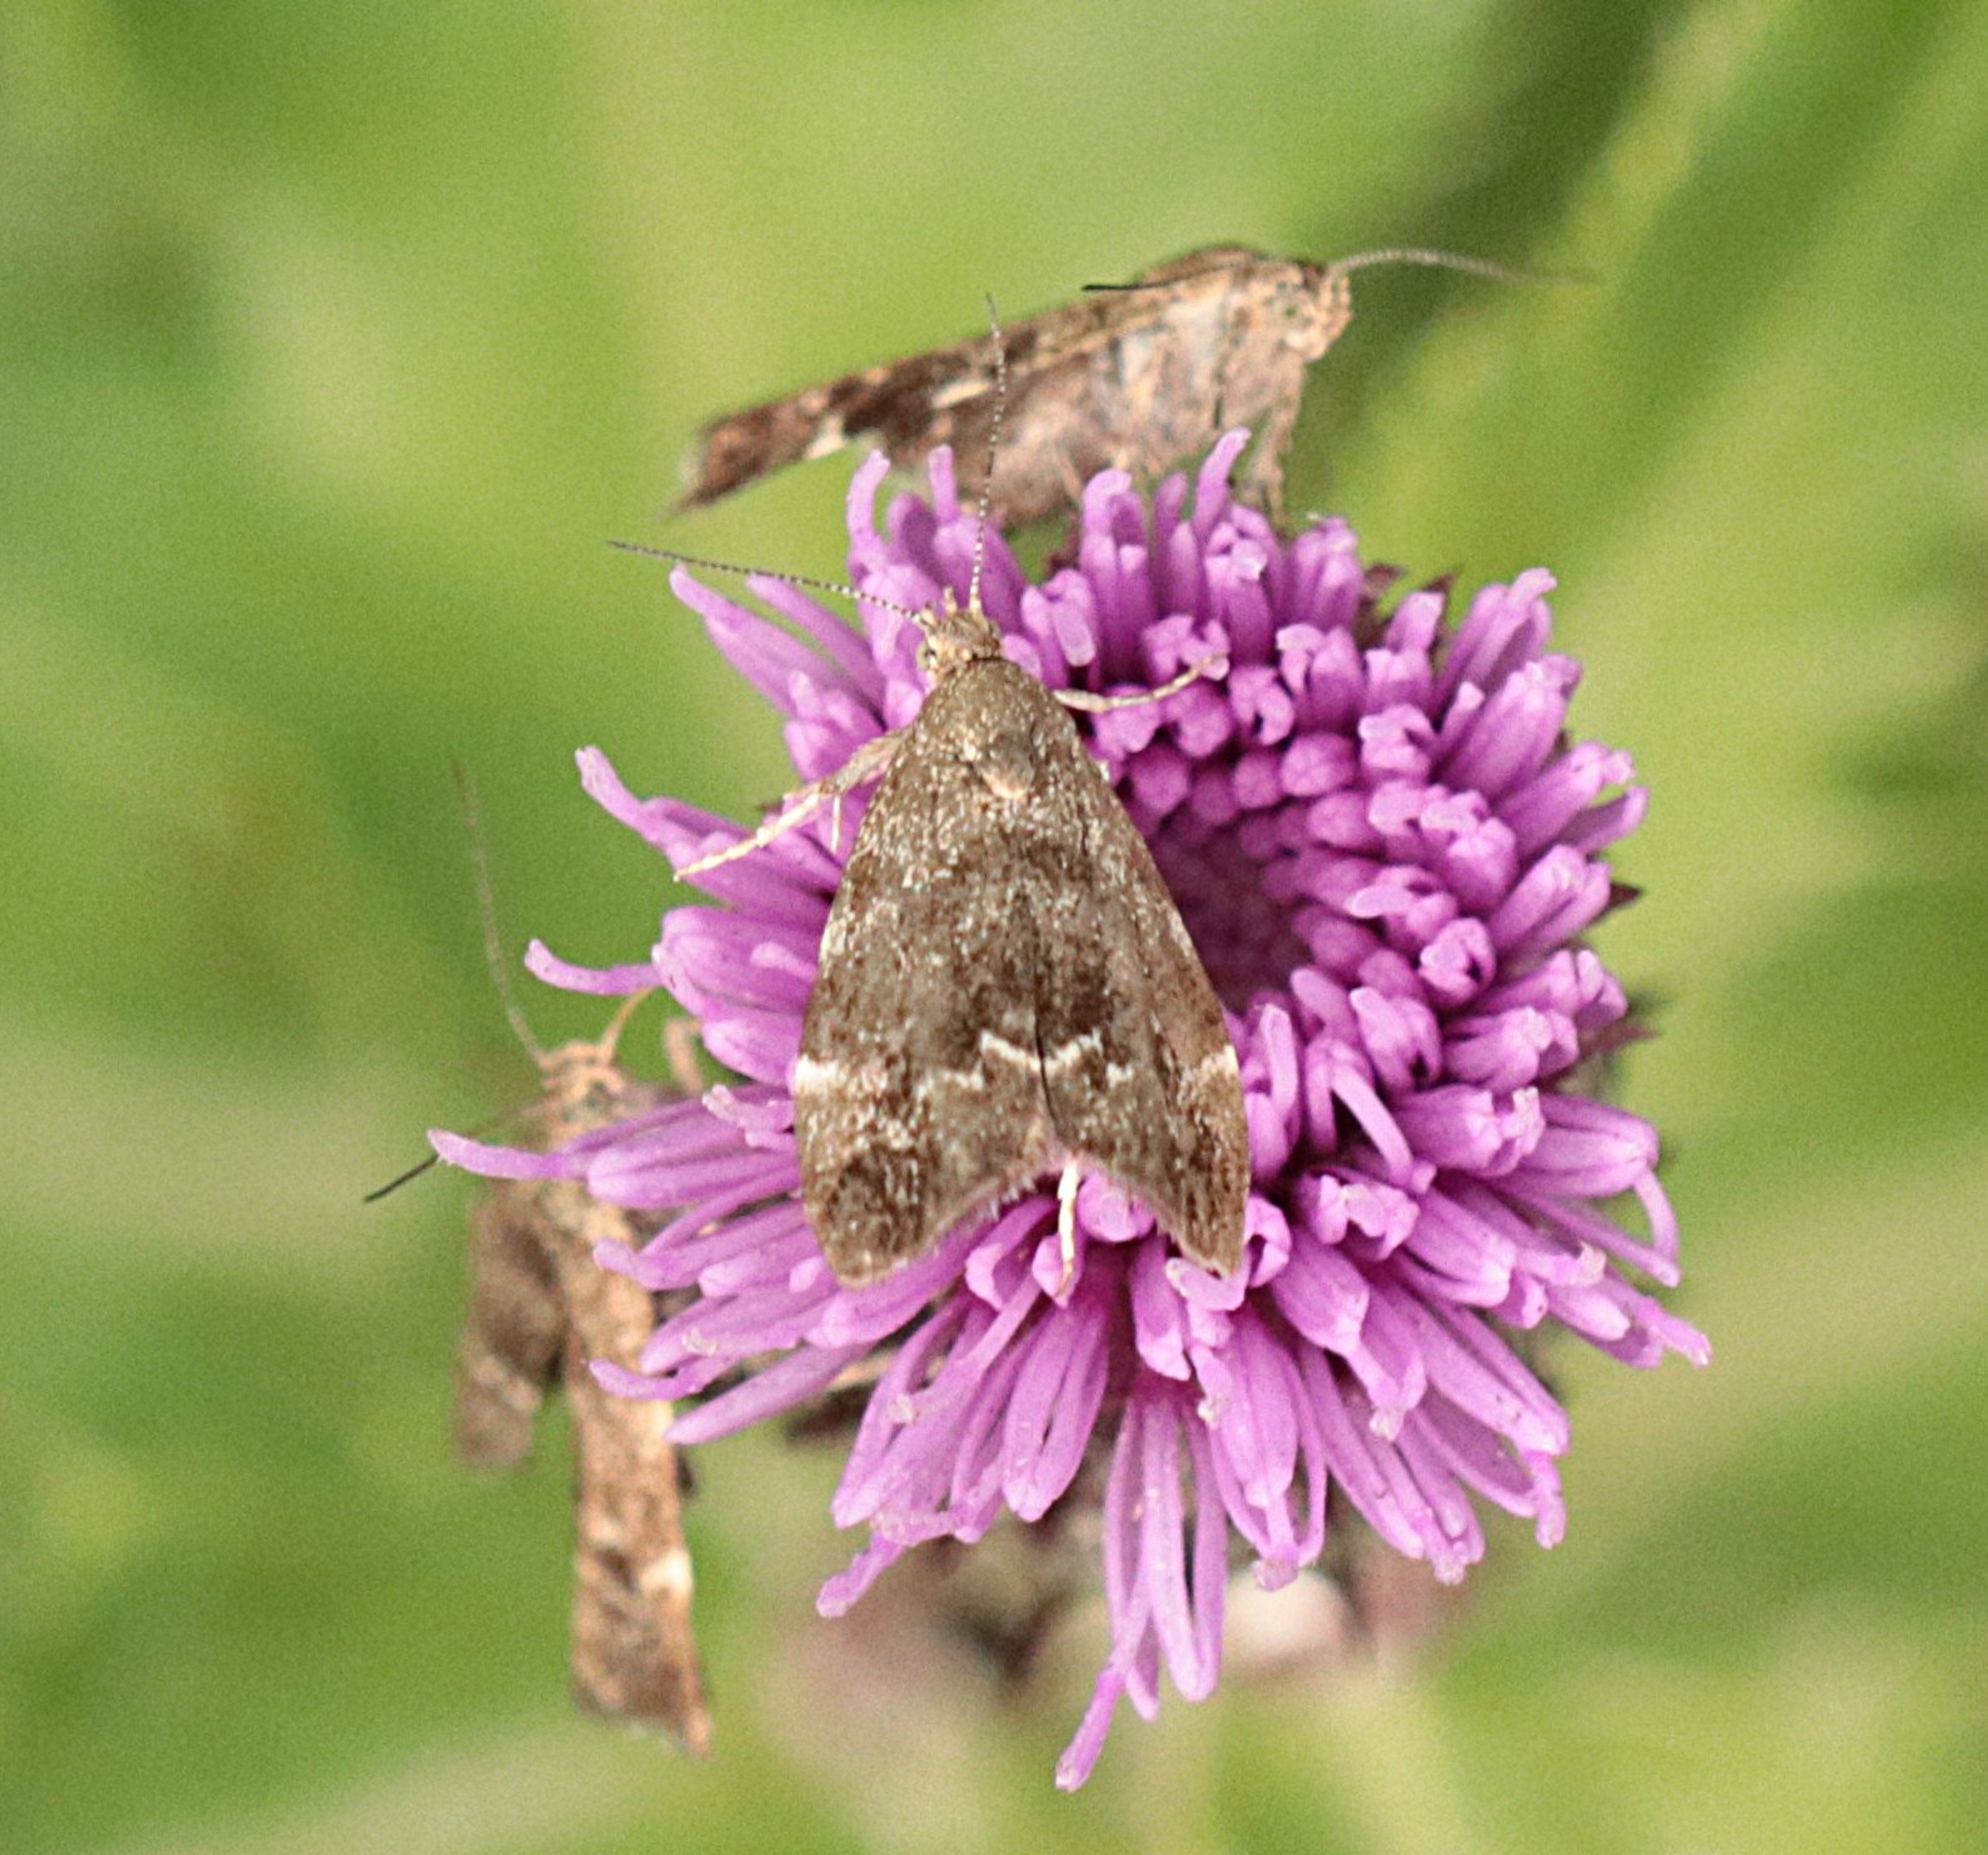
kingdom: Animalia
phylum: Arthropoda
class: Insecta
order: Lepidoptera
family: Choreutidae
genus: Anthophila
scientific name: Anthophila fabriciana
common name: Bredvinget nældevikler
